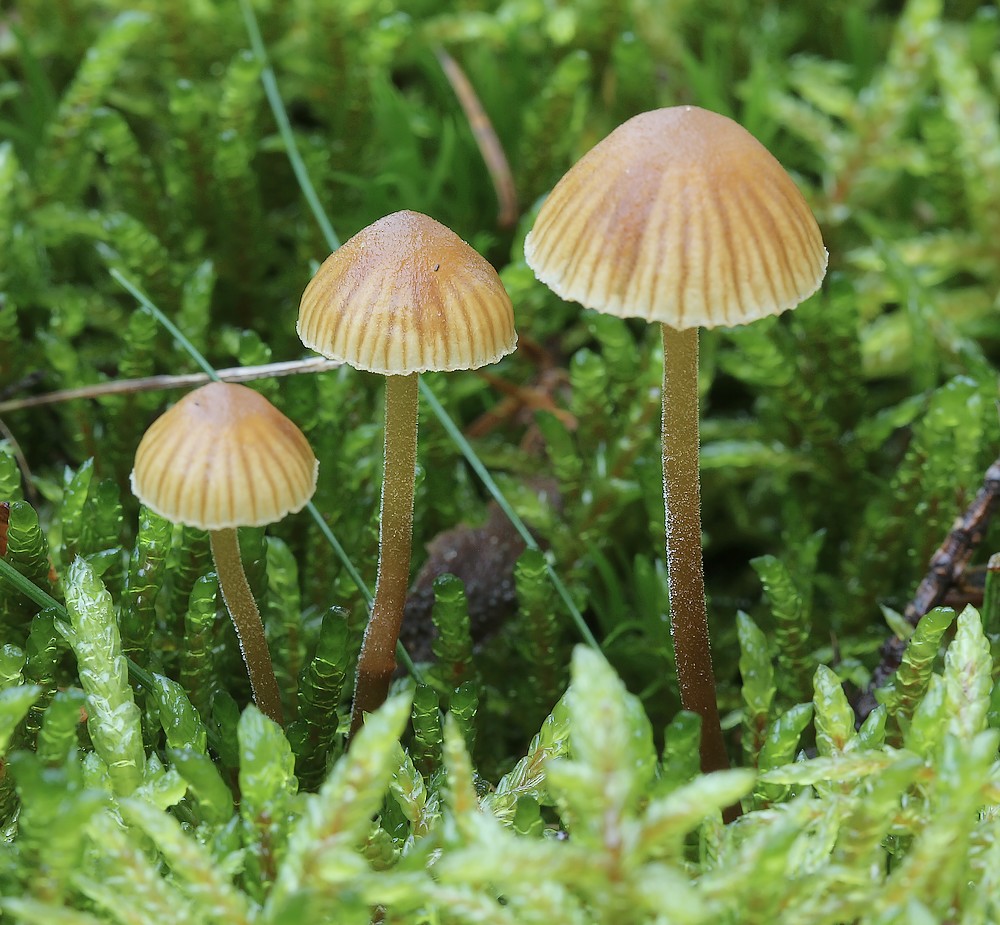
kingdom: Fungi
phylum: Basidiomycota
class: Agaricomycetes
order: Agaricales
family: Hymenogastraceae
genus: Galerina
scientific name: Galerina atkinsoniana
